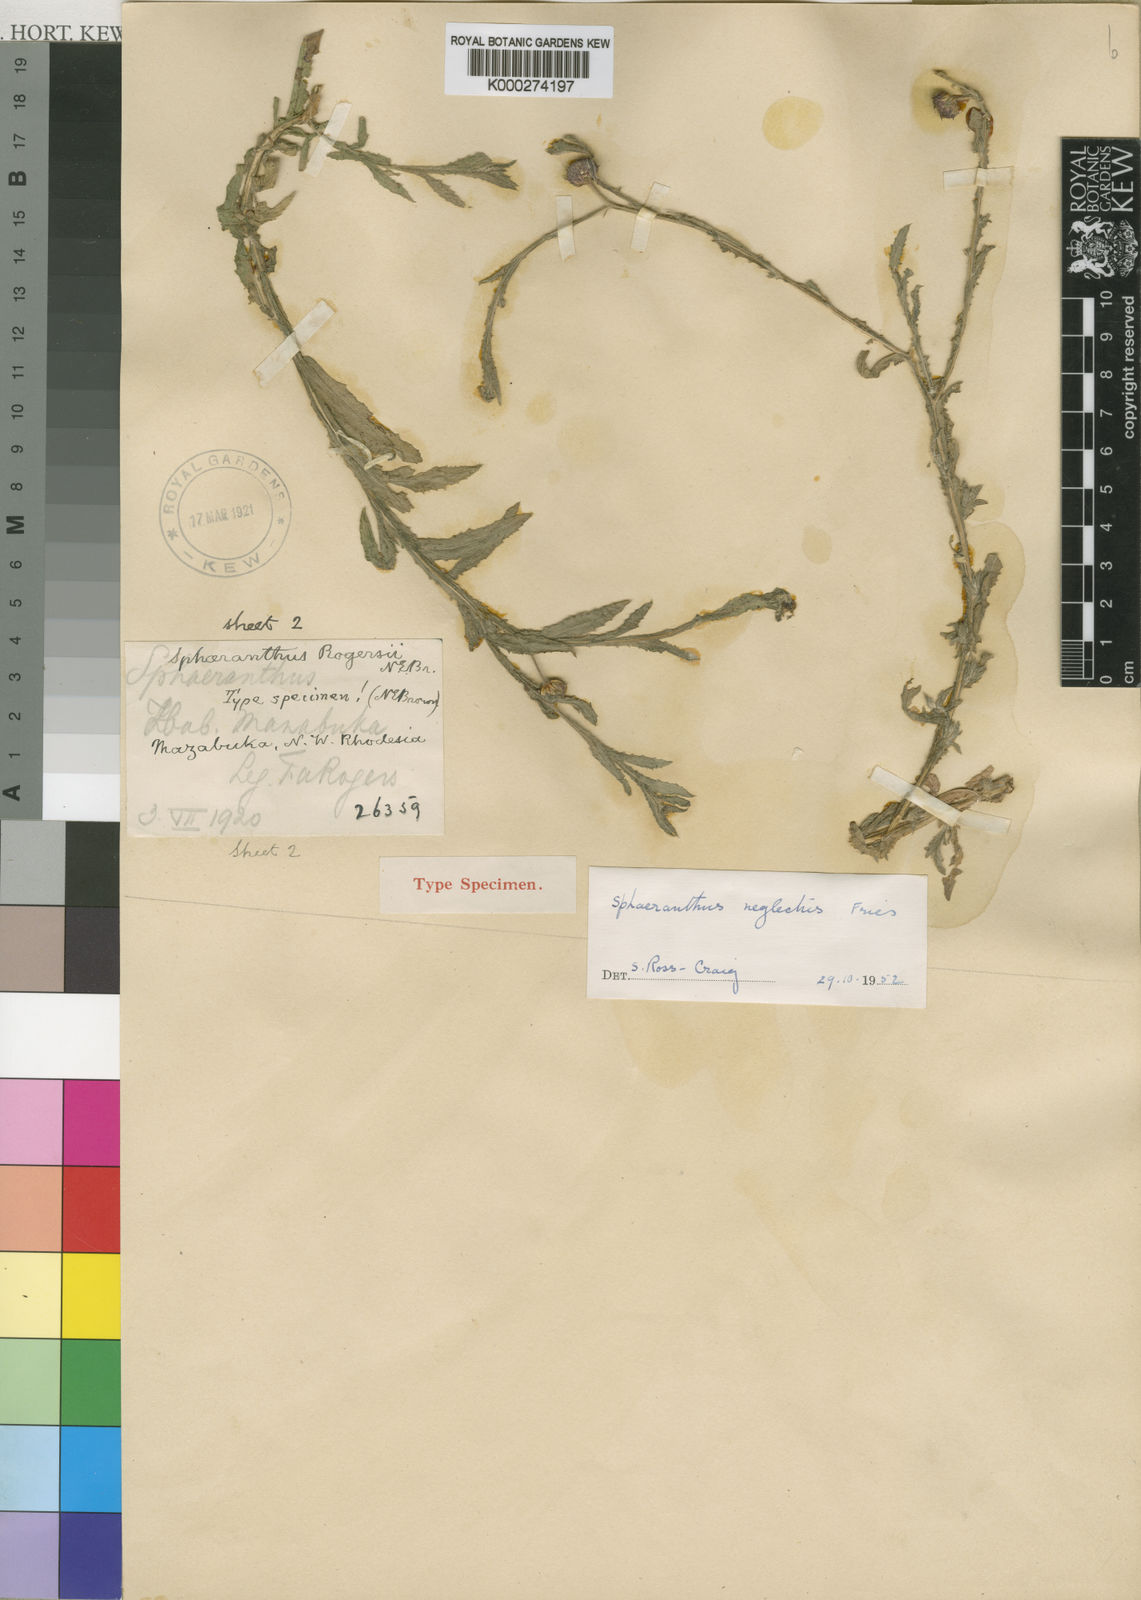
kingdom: Plantae
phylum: Tracheophyta
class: Magnoliopsida
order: Asterales
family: Asteraceae
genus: Sphaeranthus
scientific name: Sphaeranthus peduncularis
